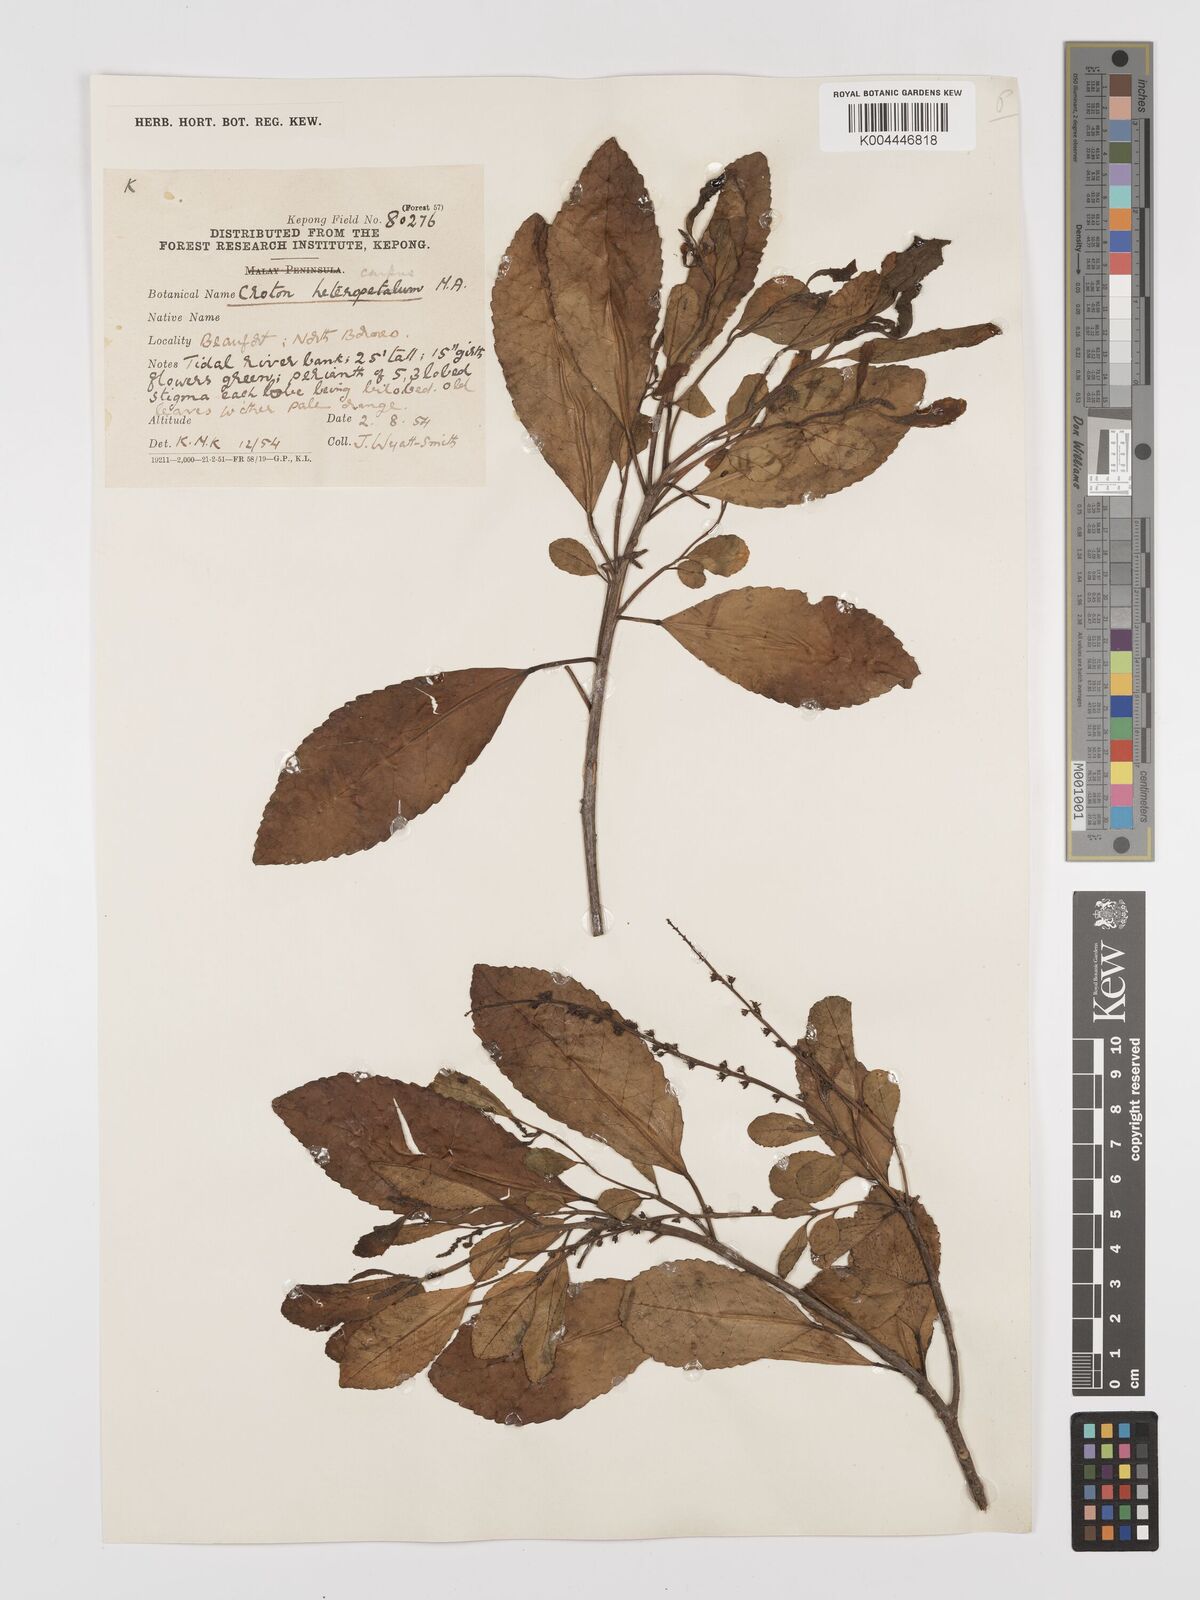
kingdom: Plantae
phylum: Tracheophyta
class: Magnoliopsida
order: Malpighiales
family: Euphorbiaceae
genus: Croton
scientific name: Croton heterocarpus
